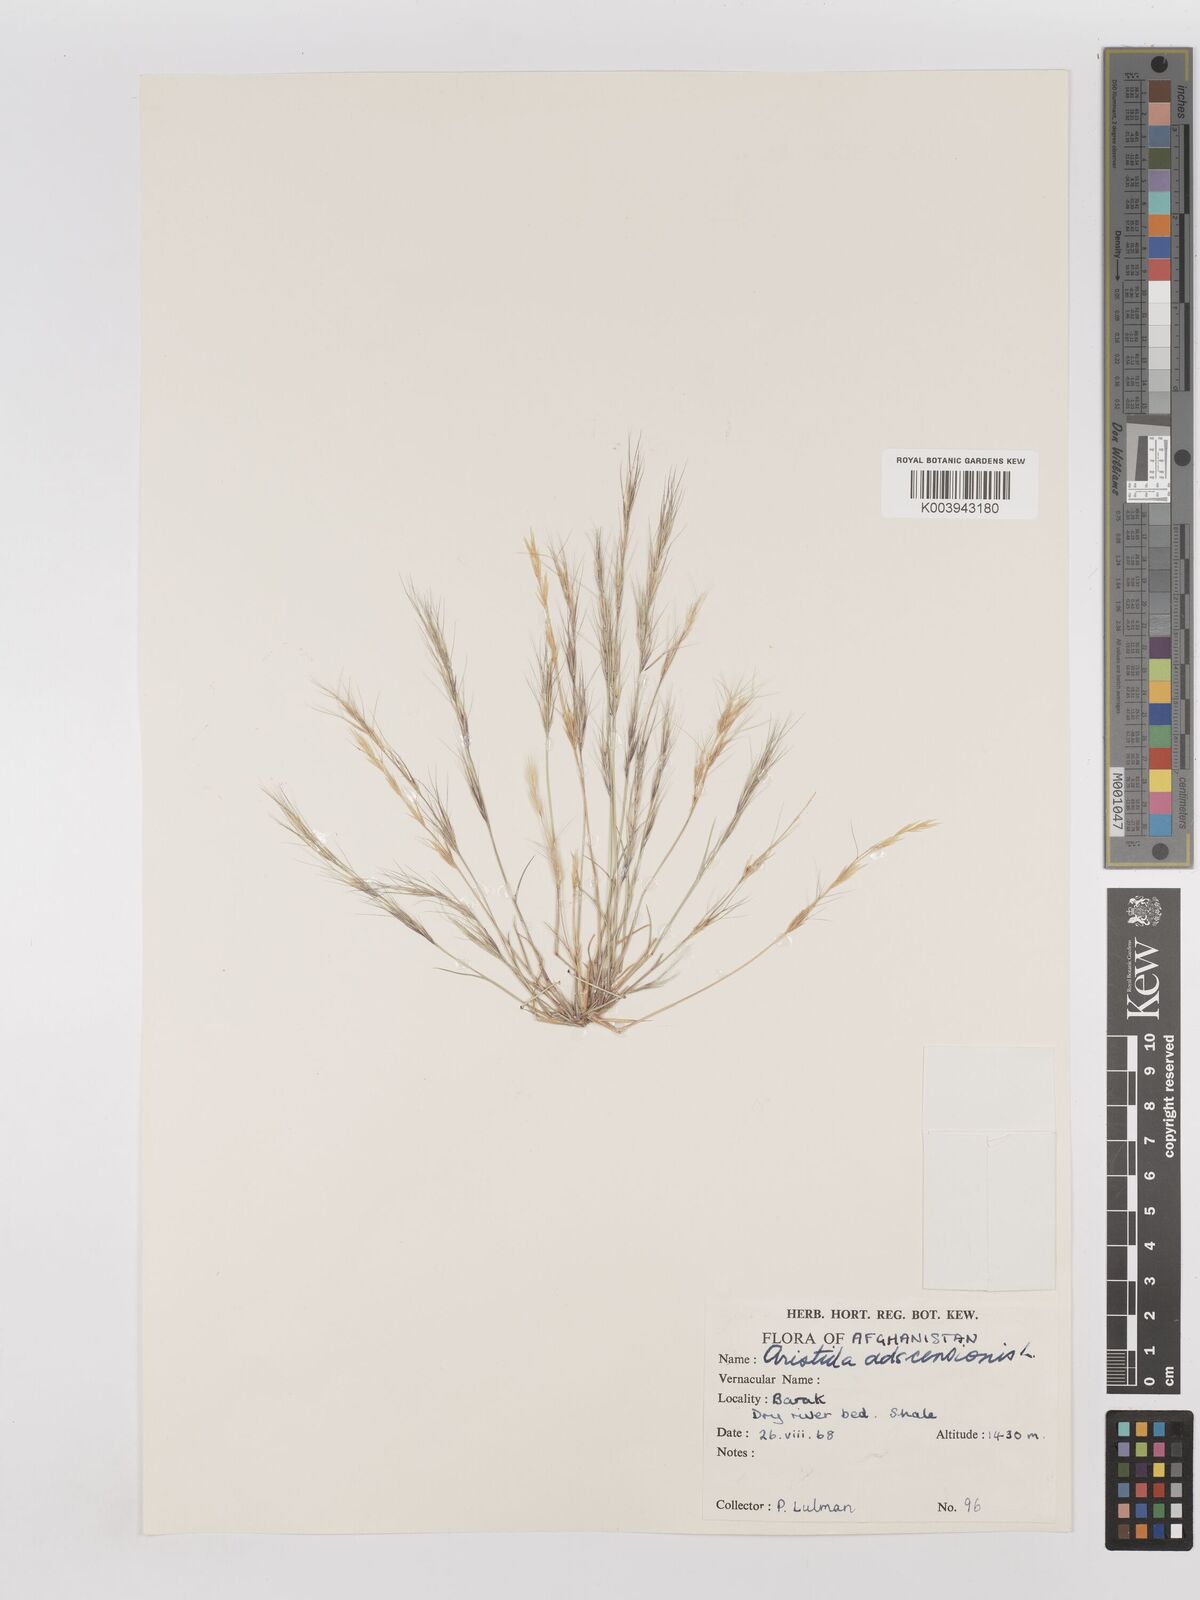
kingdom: Plantae
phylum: Tracheophyta
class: Liliopsida
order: Poales
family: Poaceae
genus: Aristida
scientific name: Aristida adscensionis
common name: Sixweeks threeawn
